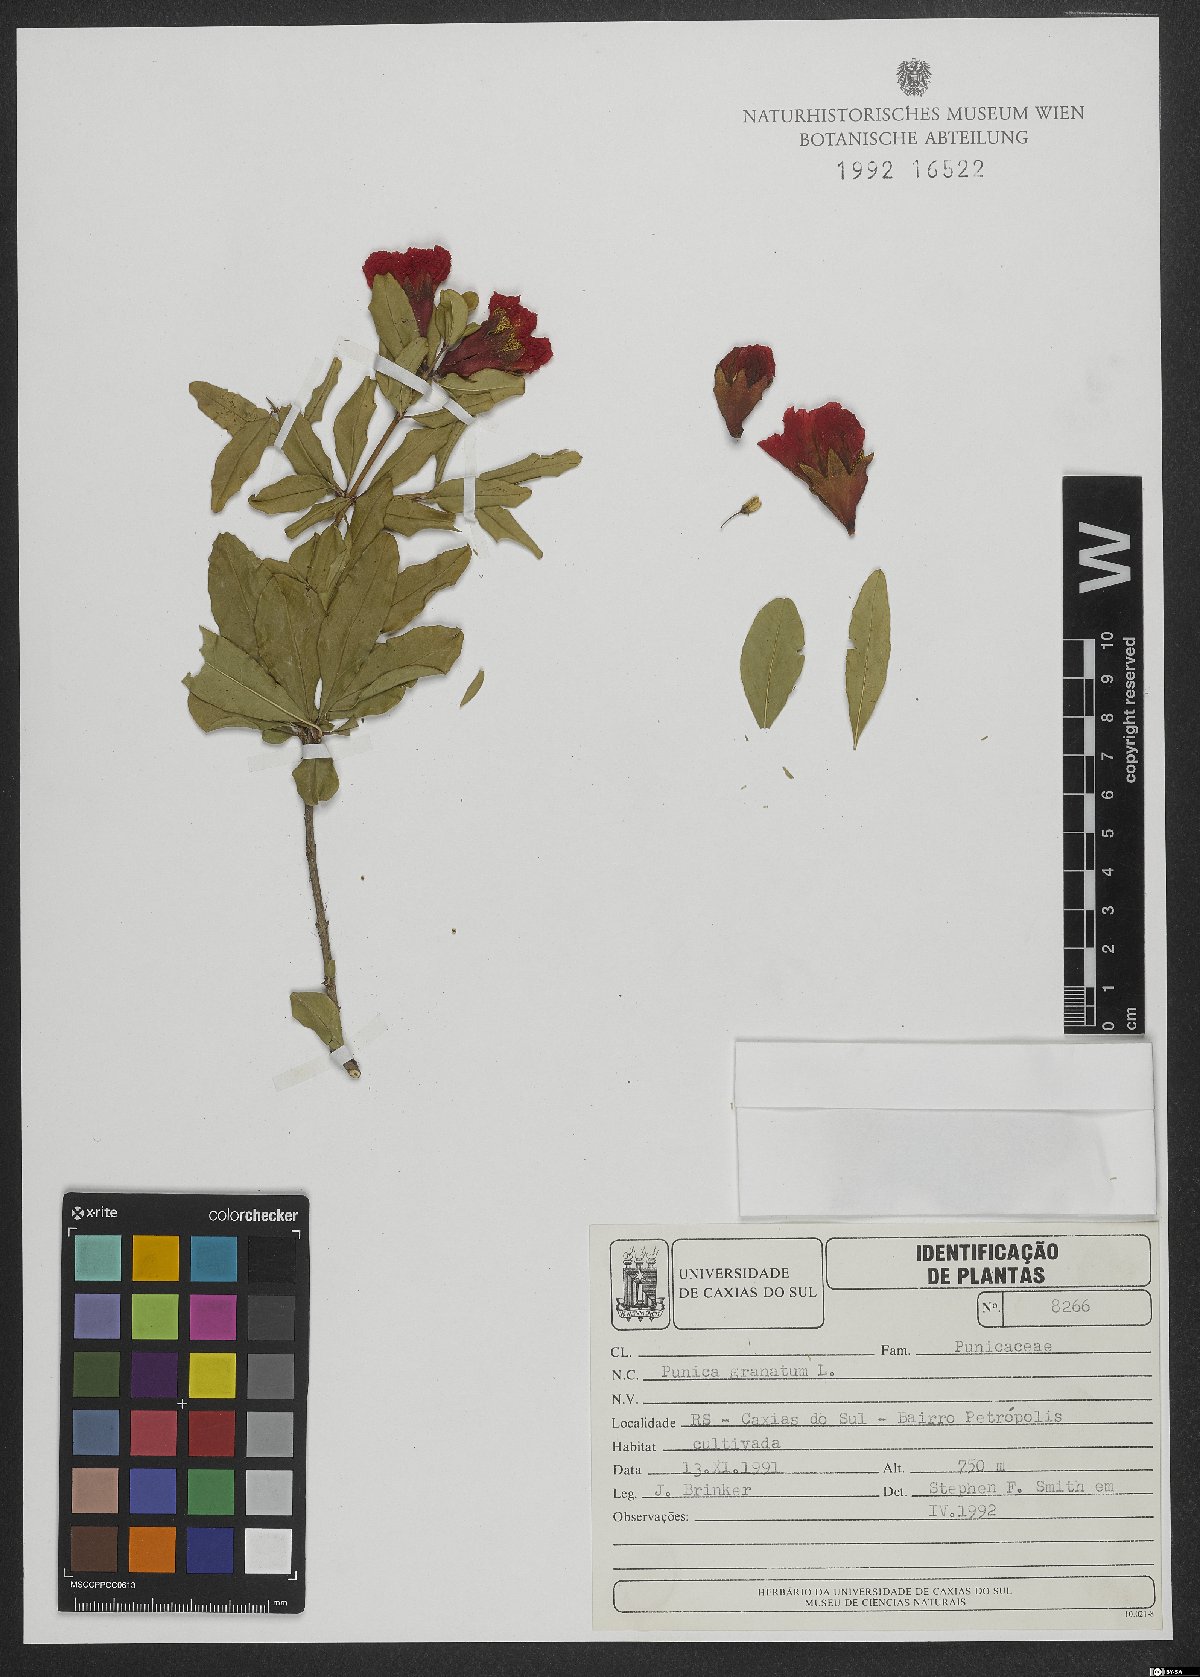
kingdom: Plantae
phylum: Tracheophyta
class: Magnoliopsida
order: Myrtales
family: Lythraceae
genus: Punica
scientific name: Punica granatum
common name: Pomegranate
